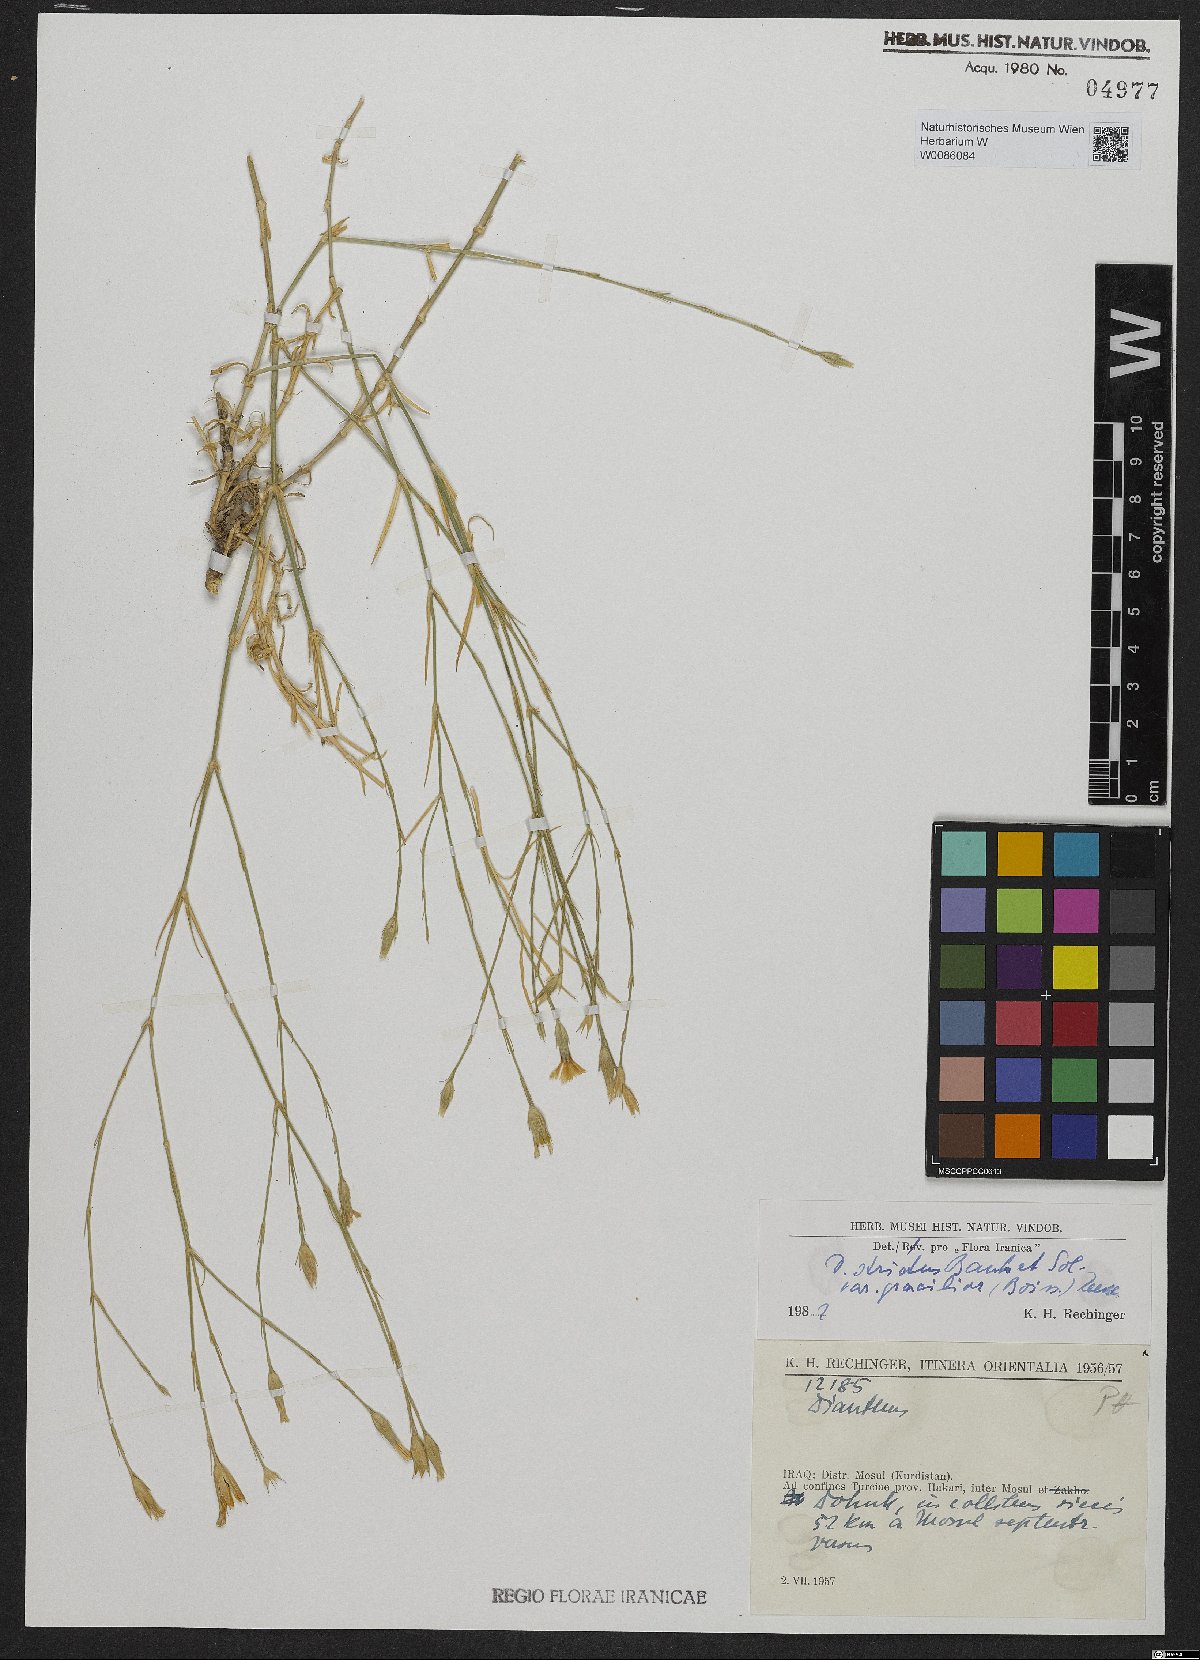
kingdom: Plantae
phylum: Tracheophyta
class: Magnoliopsida
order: Caryophyllales
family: Caryophyllaceae
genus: Dianthus
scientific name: Dianthus strictus
